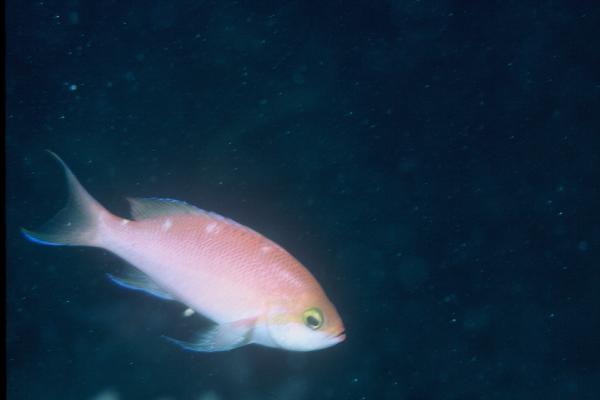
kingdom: Animalia
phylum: Chordata
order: Perciformes
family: Serranidae
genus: Pseudanthias
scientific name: Pseudanthias hutomoi
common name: Four-spot basslet
